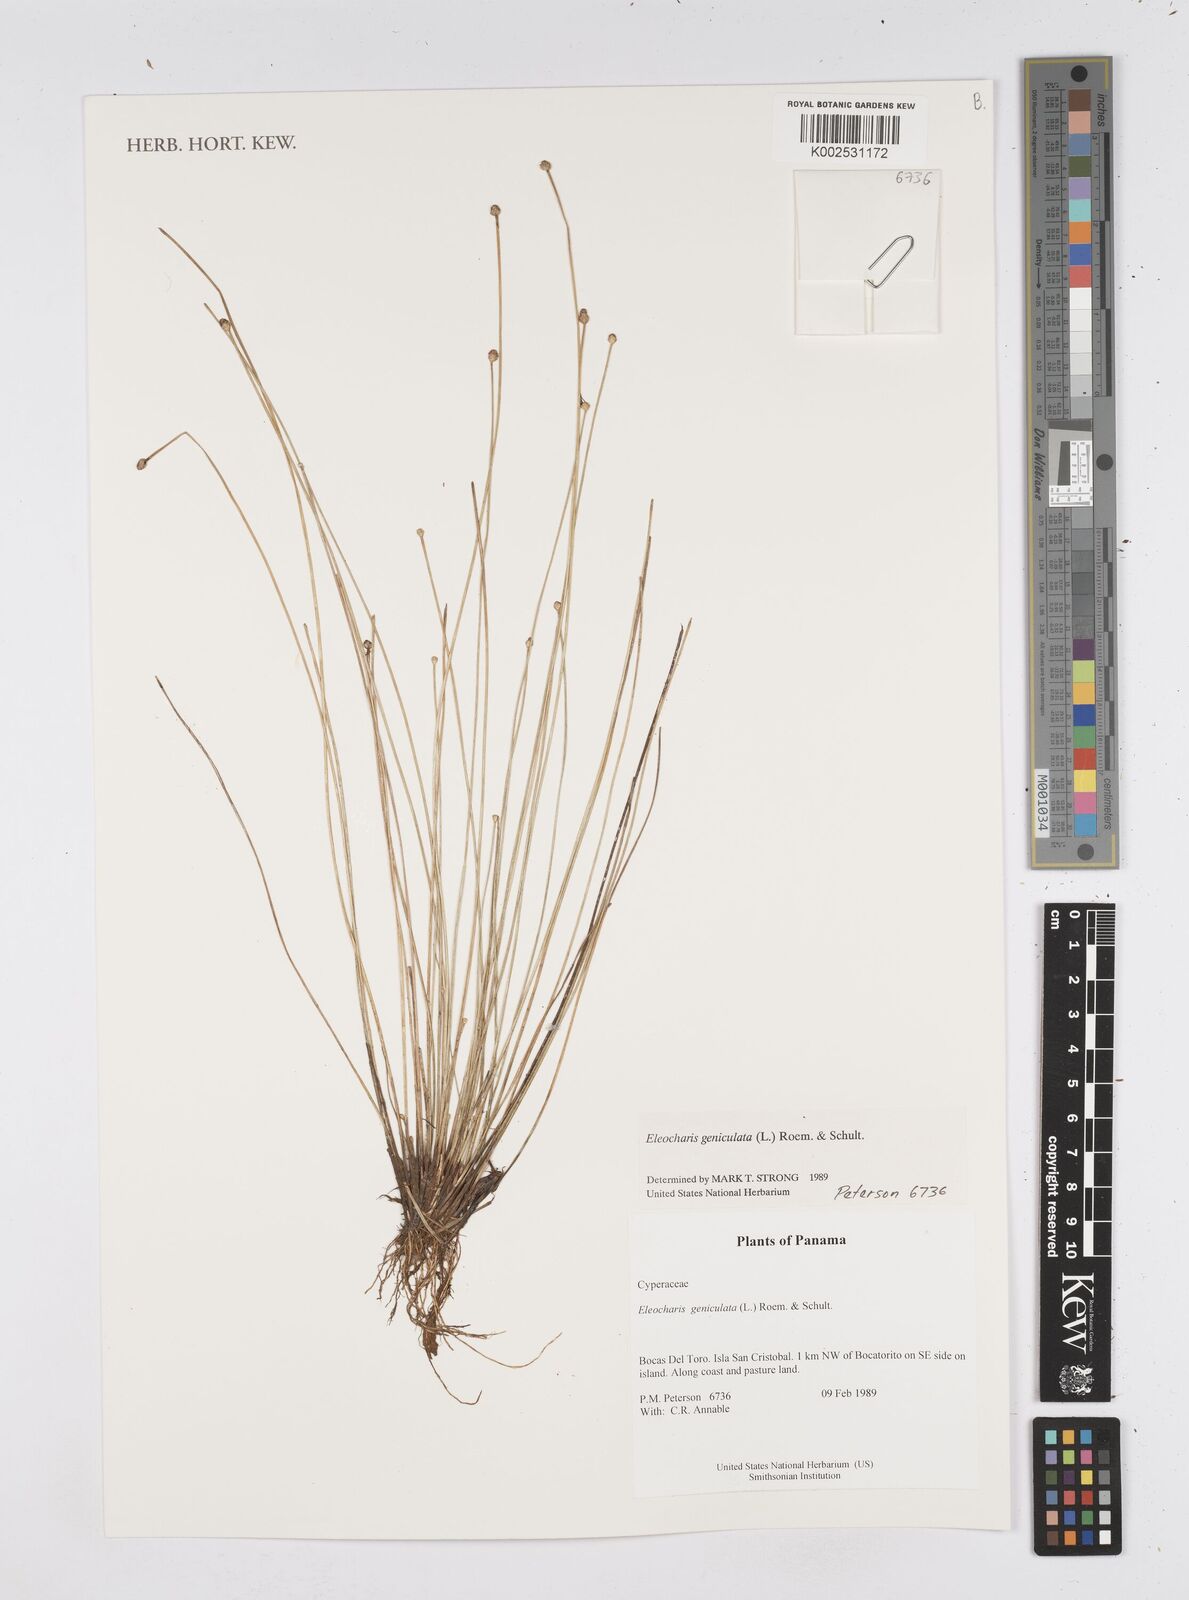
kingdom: Plantae
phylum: Tracheophyta
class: Liliopsida
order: Poales
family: Cyperaceae
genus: Eleocharis
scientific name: Eleocharis geniculata
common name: Canada spikesedge
